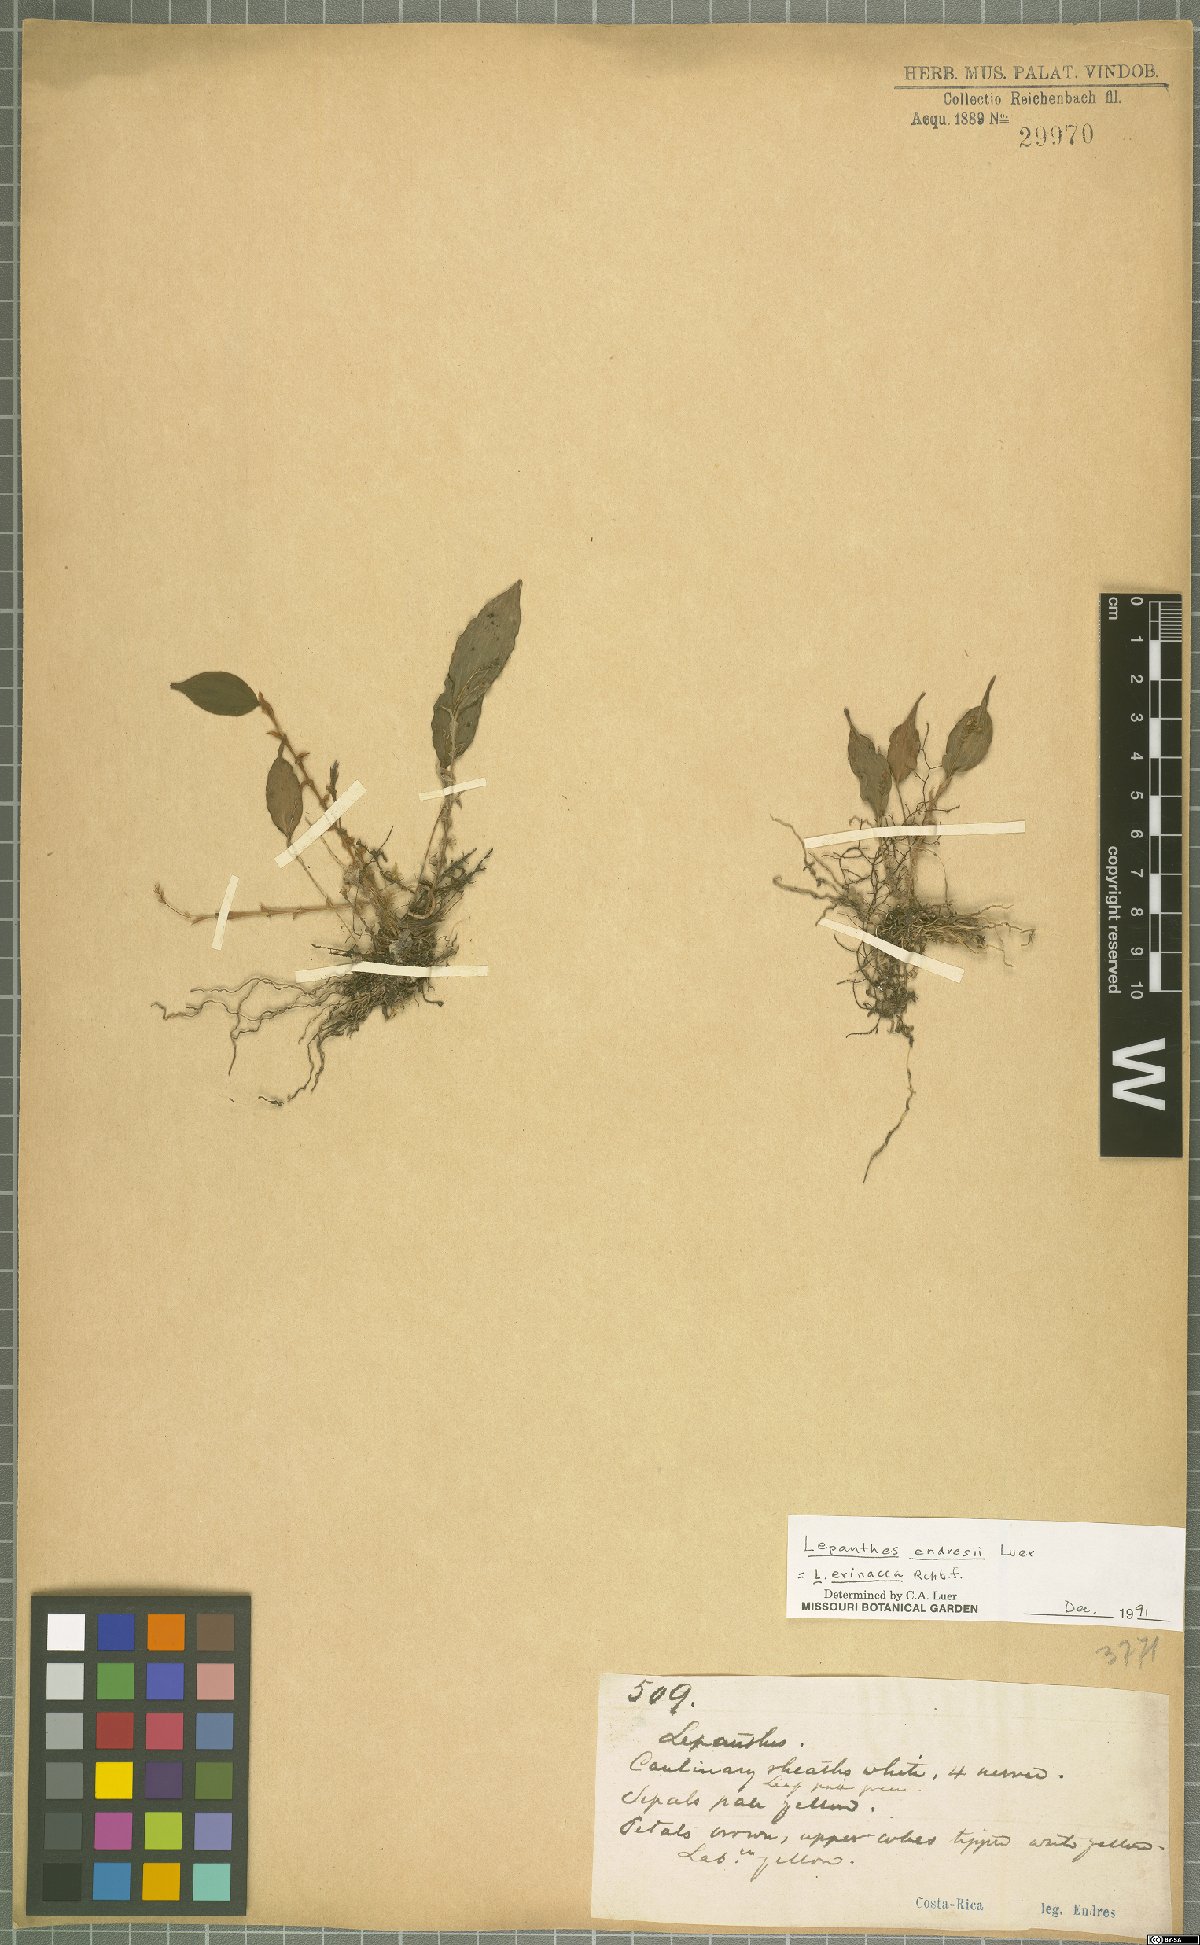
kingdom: Plantae
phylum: Tracheophyta
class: Liliopsida
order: Asparagales
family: Orchidaceae
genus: Lepanthes
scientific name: Lepanthes erinacea
